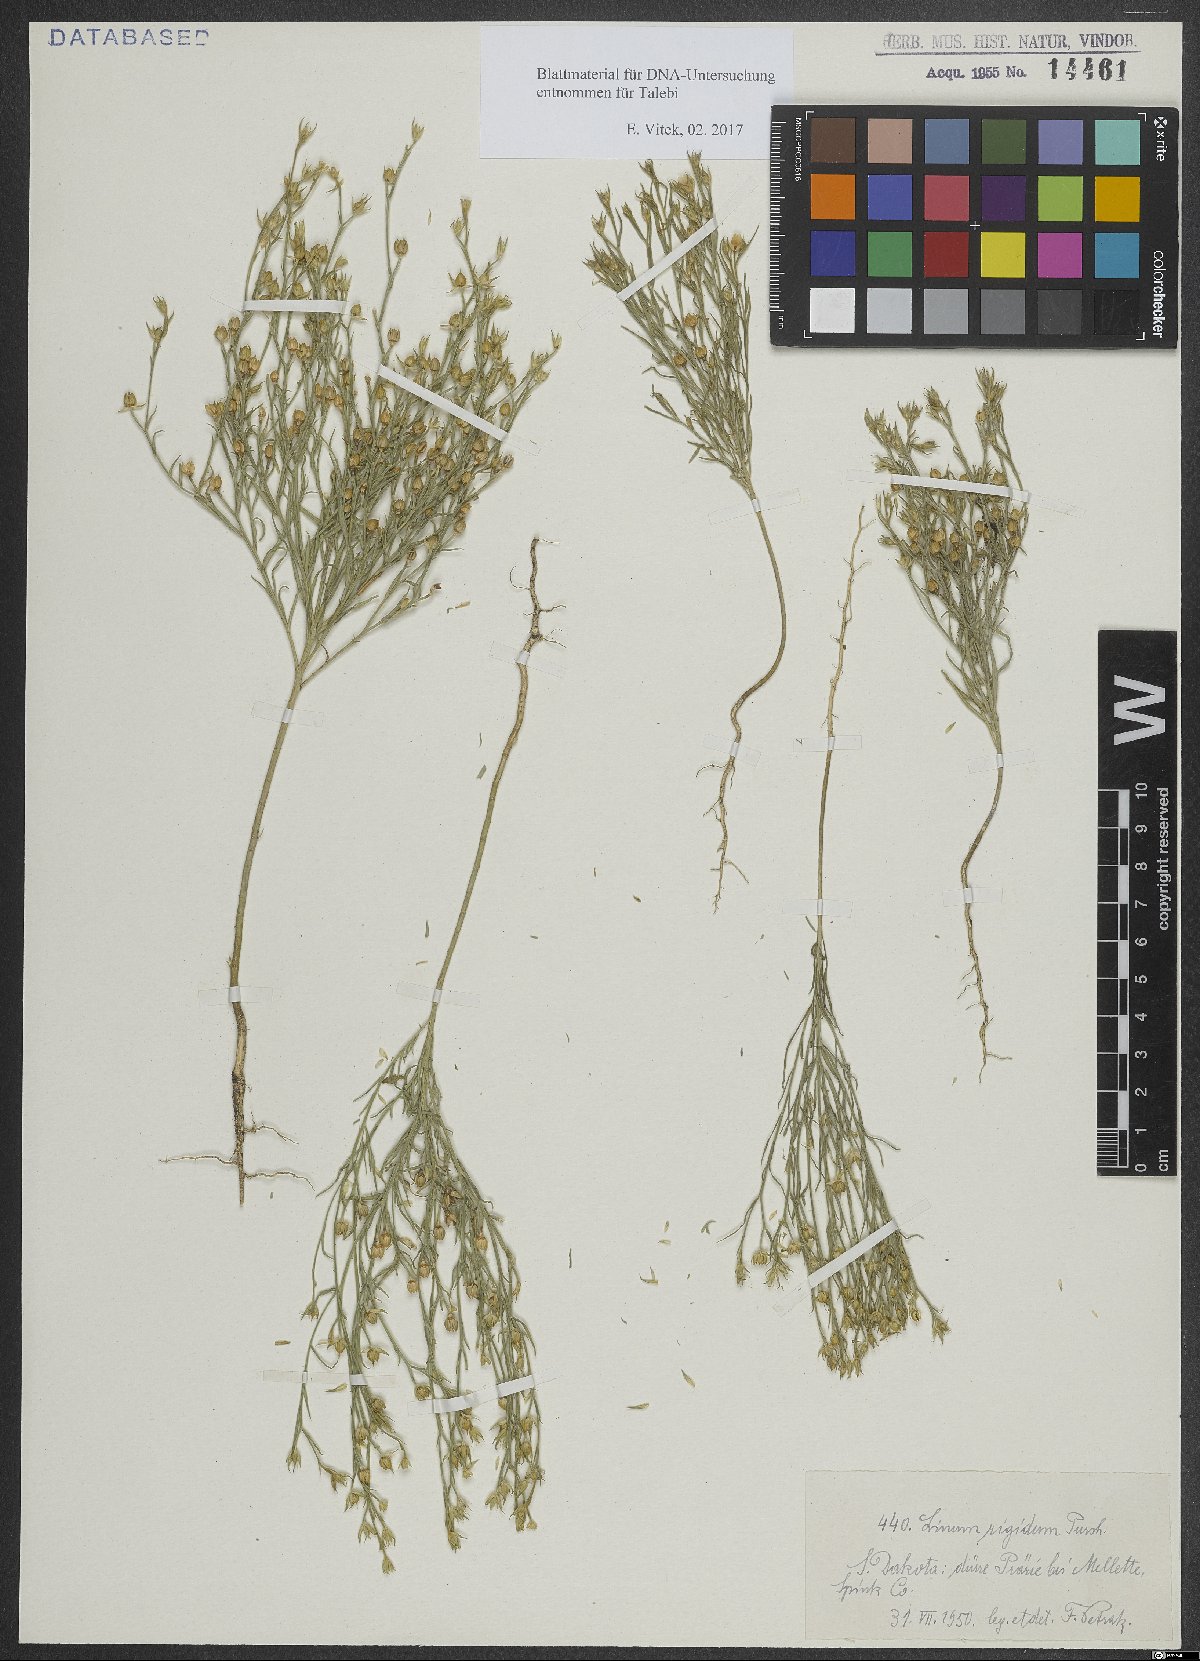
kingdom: Plantae
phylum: Tracheophyta
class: Magnoliopsida
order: Malpighiales
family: Linaceae
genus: Linum
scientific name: Linum rigidum
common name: Stiff-stem flax
